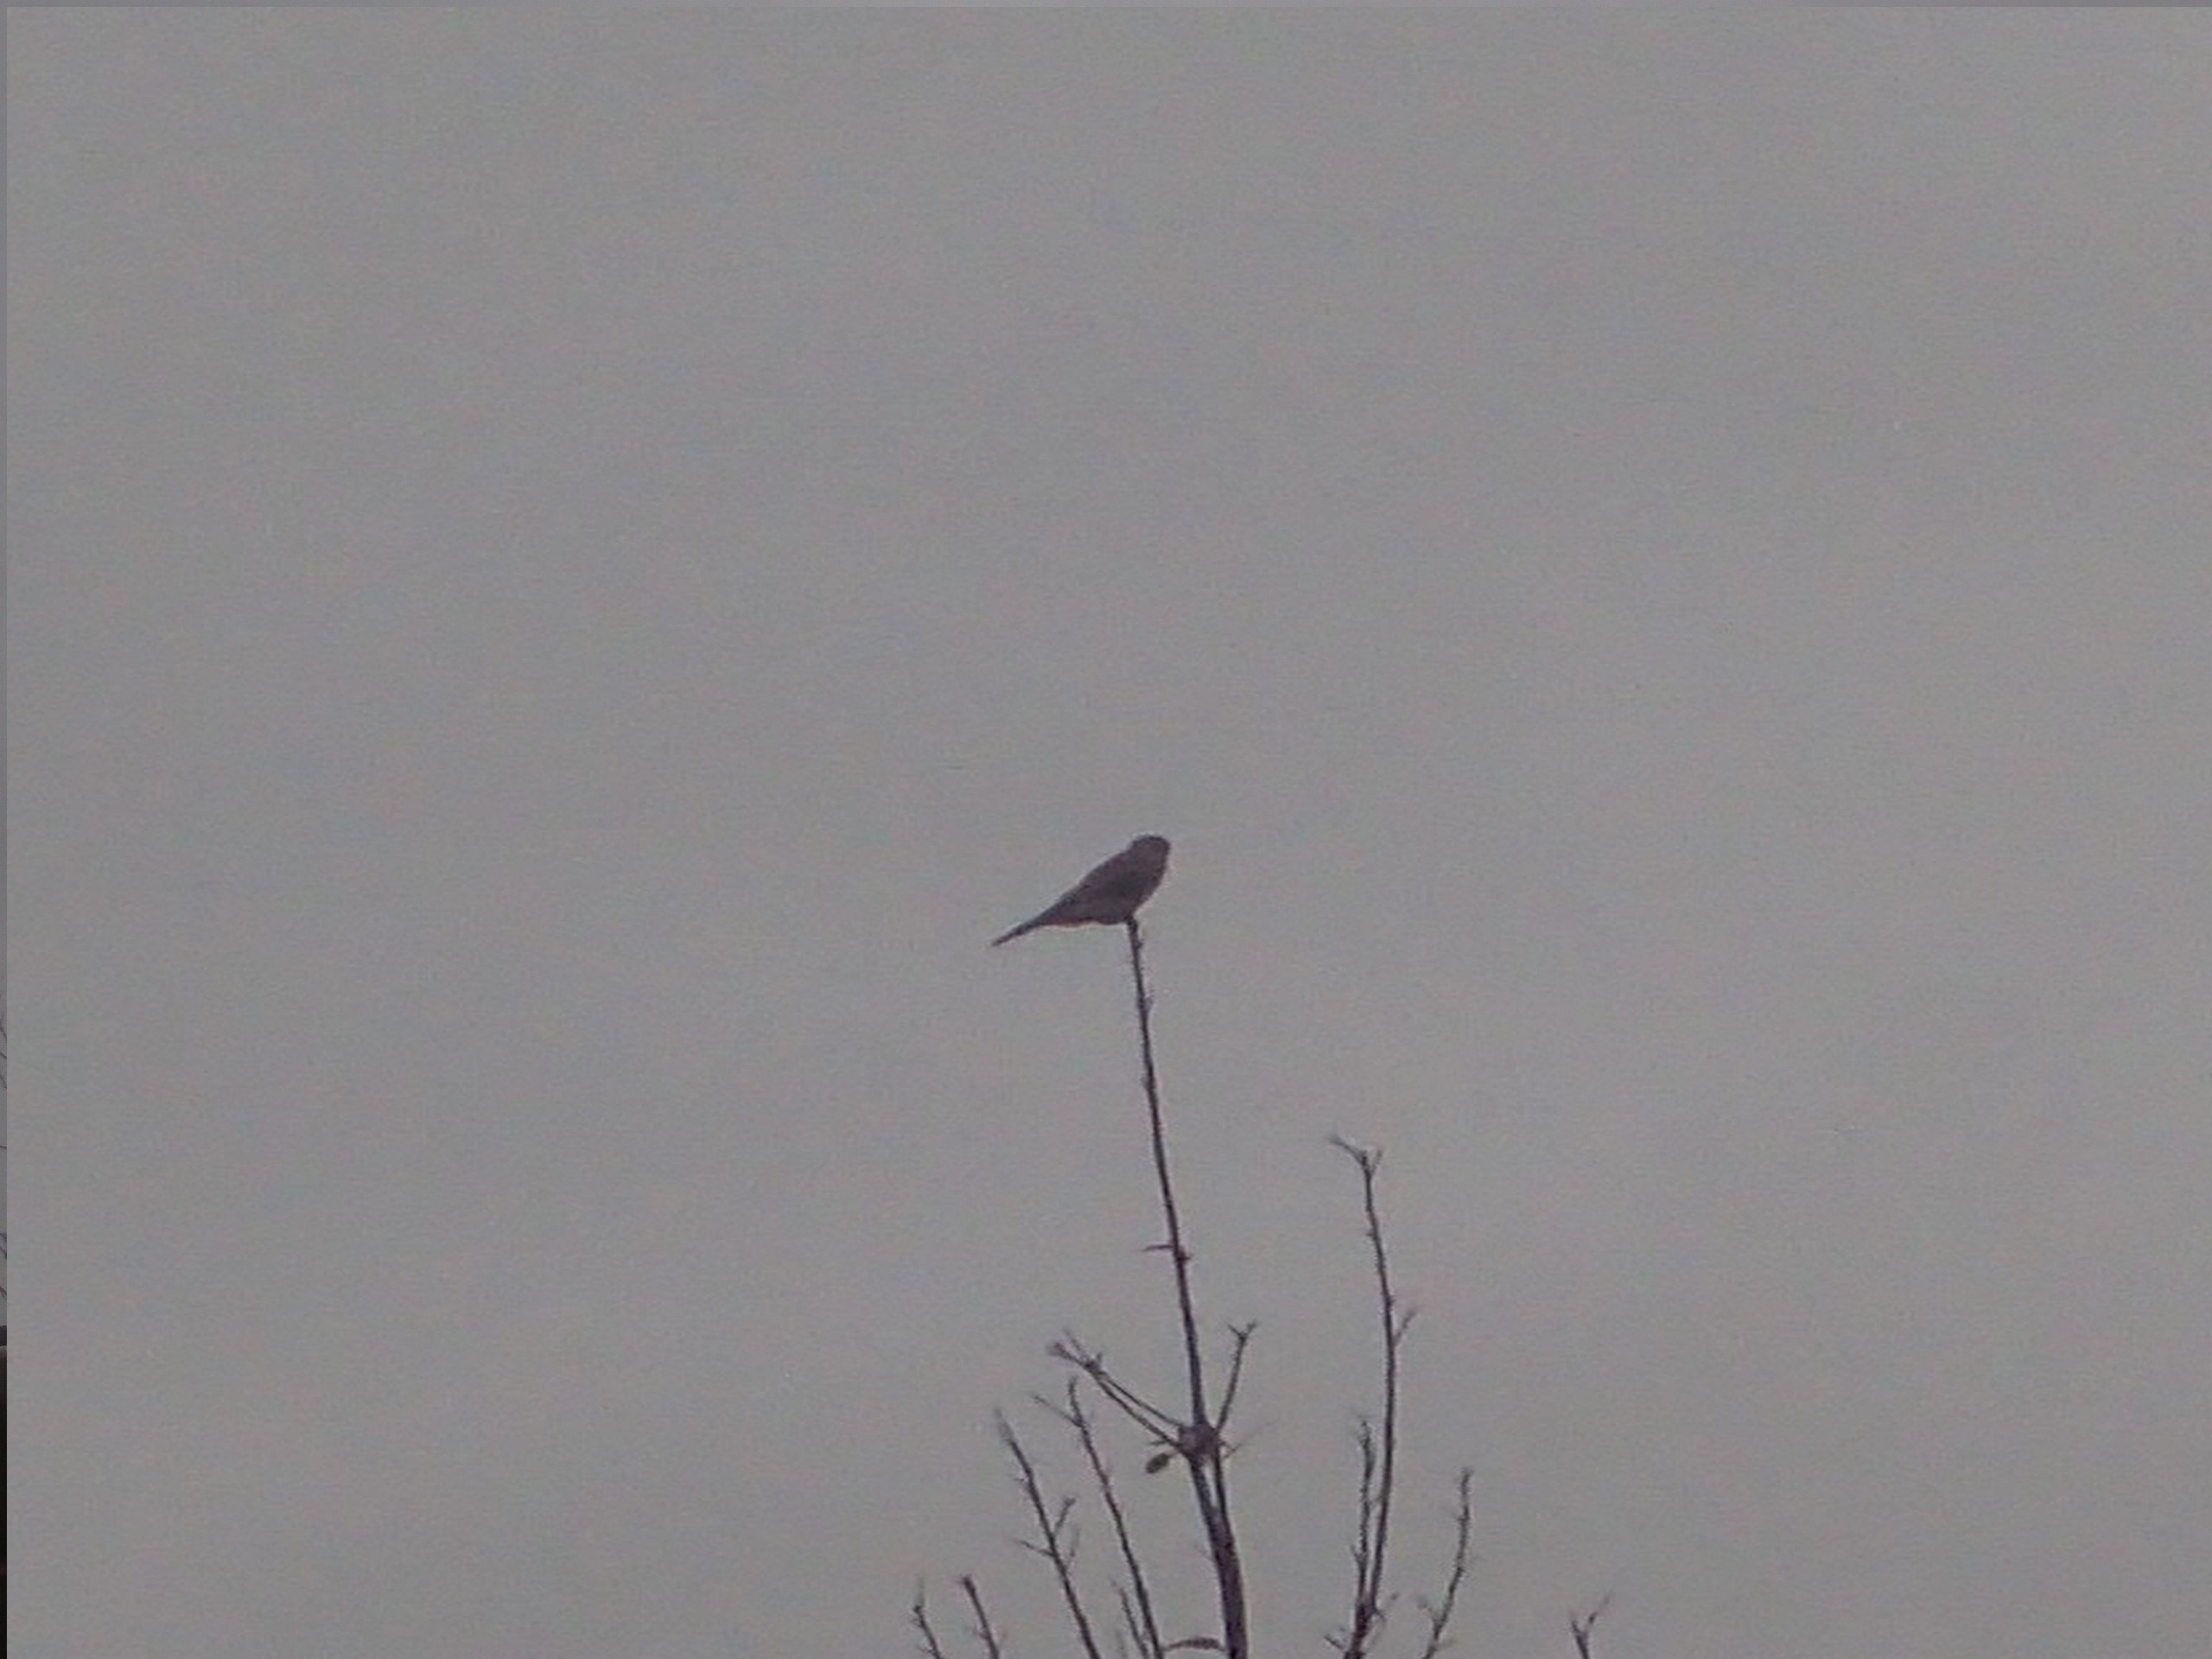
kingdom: Animalia
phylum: Chordata
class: Aves
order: Falconiformes
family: Falconidae
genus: Falco
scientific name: Falco tinnunculus
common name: Tårnfalk
